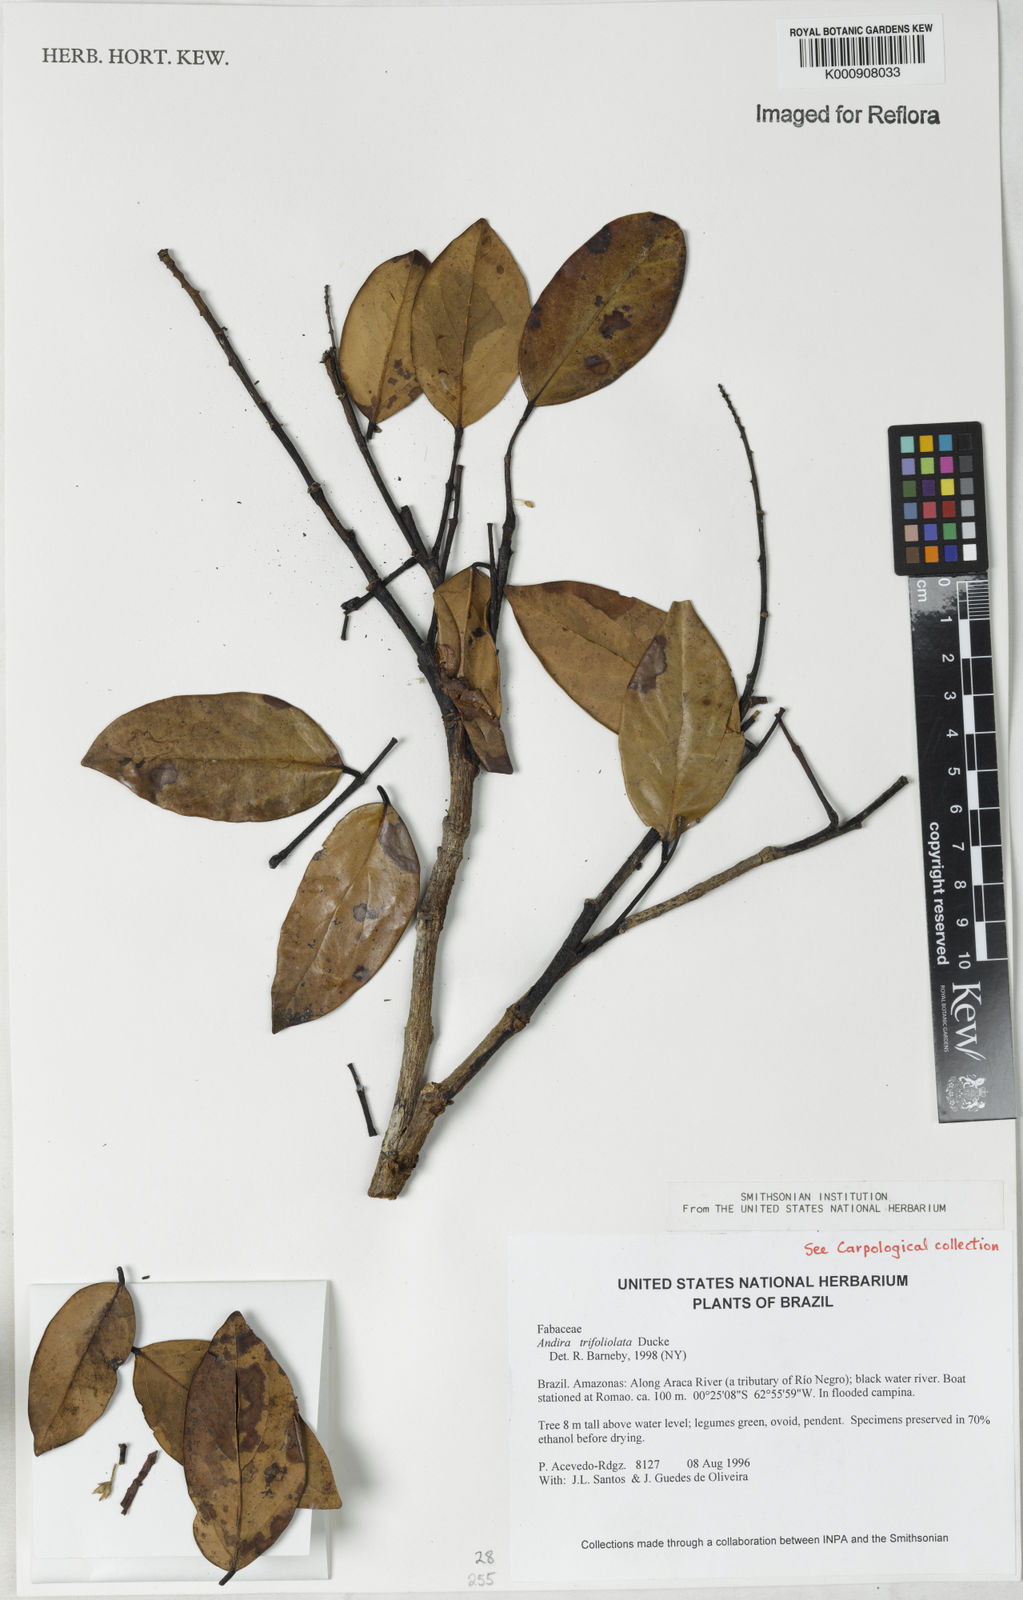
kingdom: Plantae
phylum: Tracheophyta
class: Magnoliopsida
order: Fabales
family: Fabaceae
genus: Andira
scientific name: Andira trifoliolata
